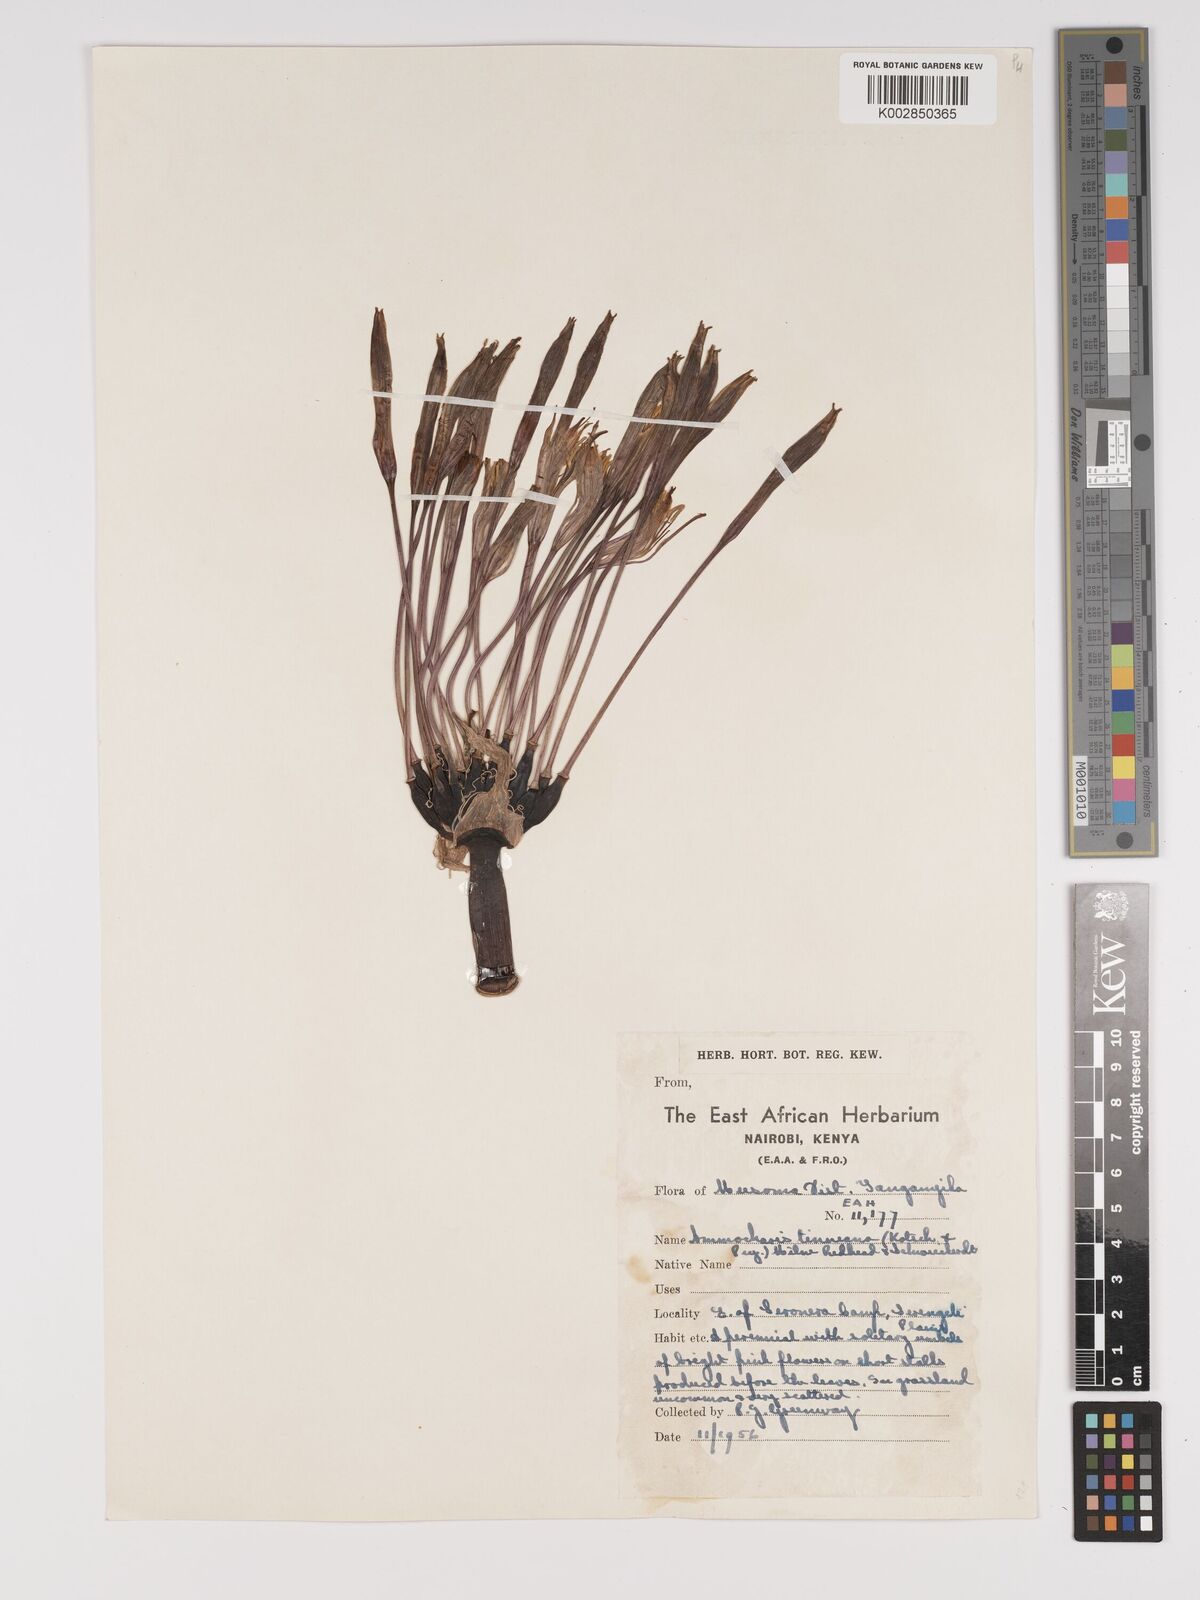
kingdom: Plantae
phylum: Tracheophyta
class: Liliopsida
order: Asparagales
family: Amaryllidaceae
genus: Ammocharis
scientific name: Ammocharis tinneana
